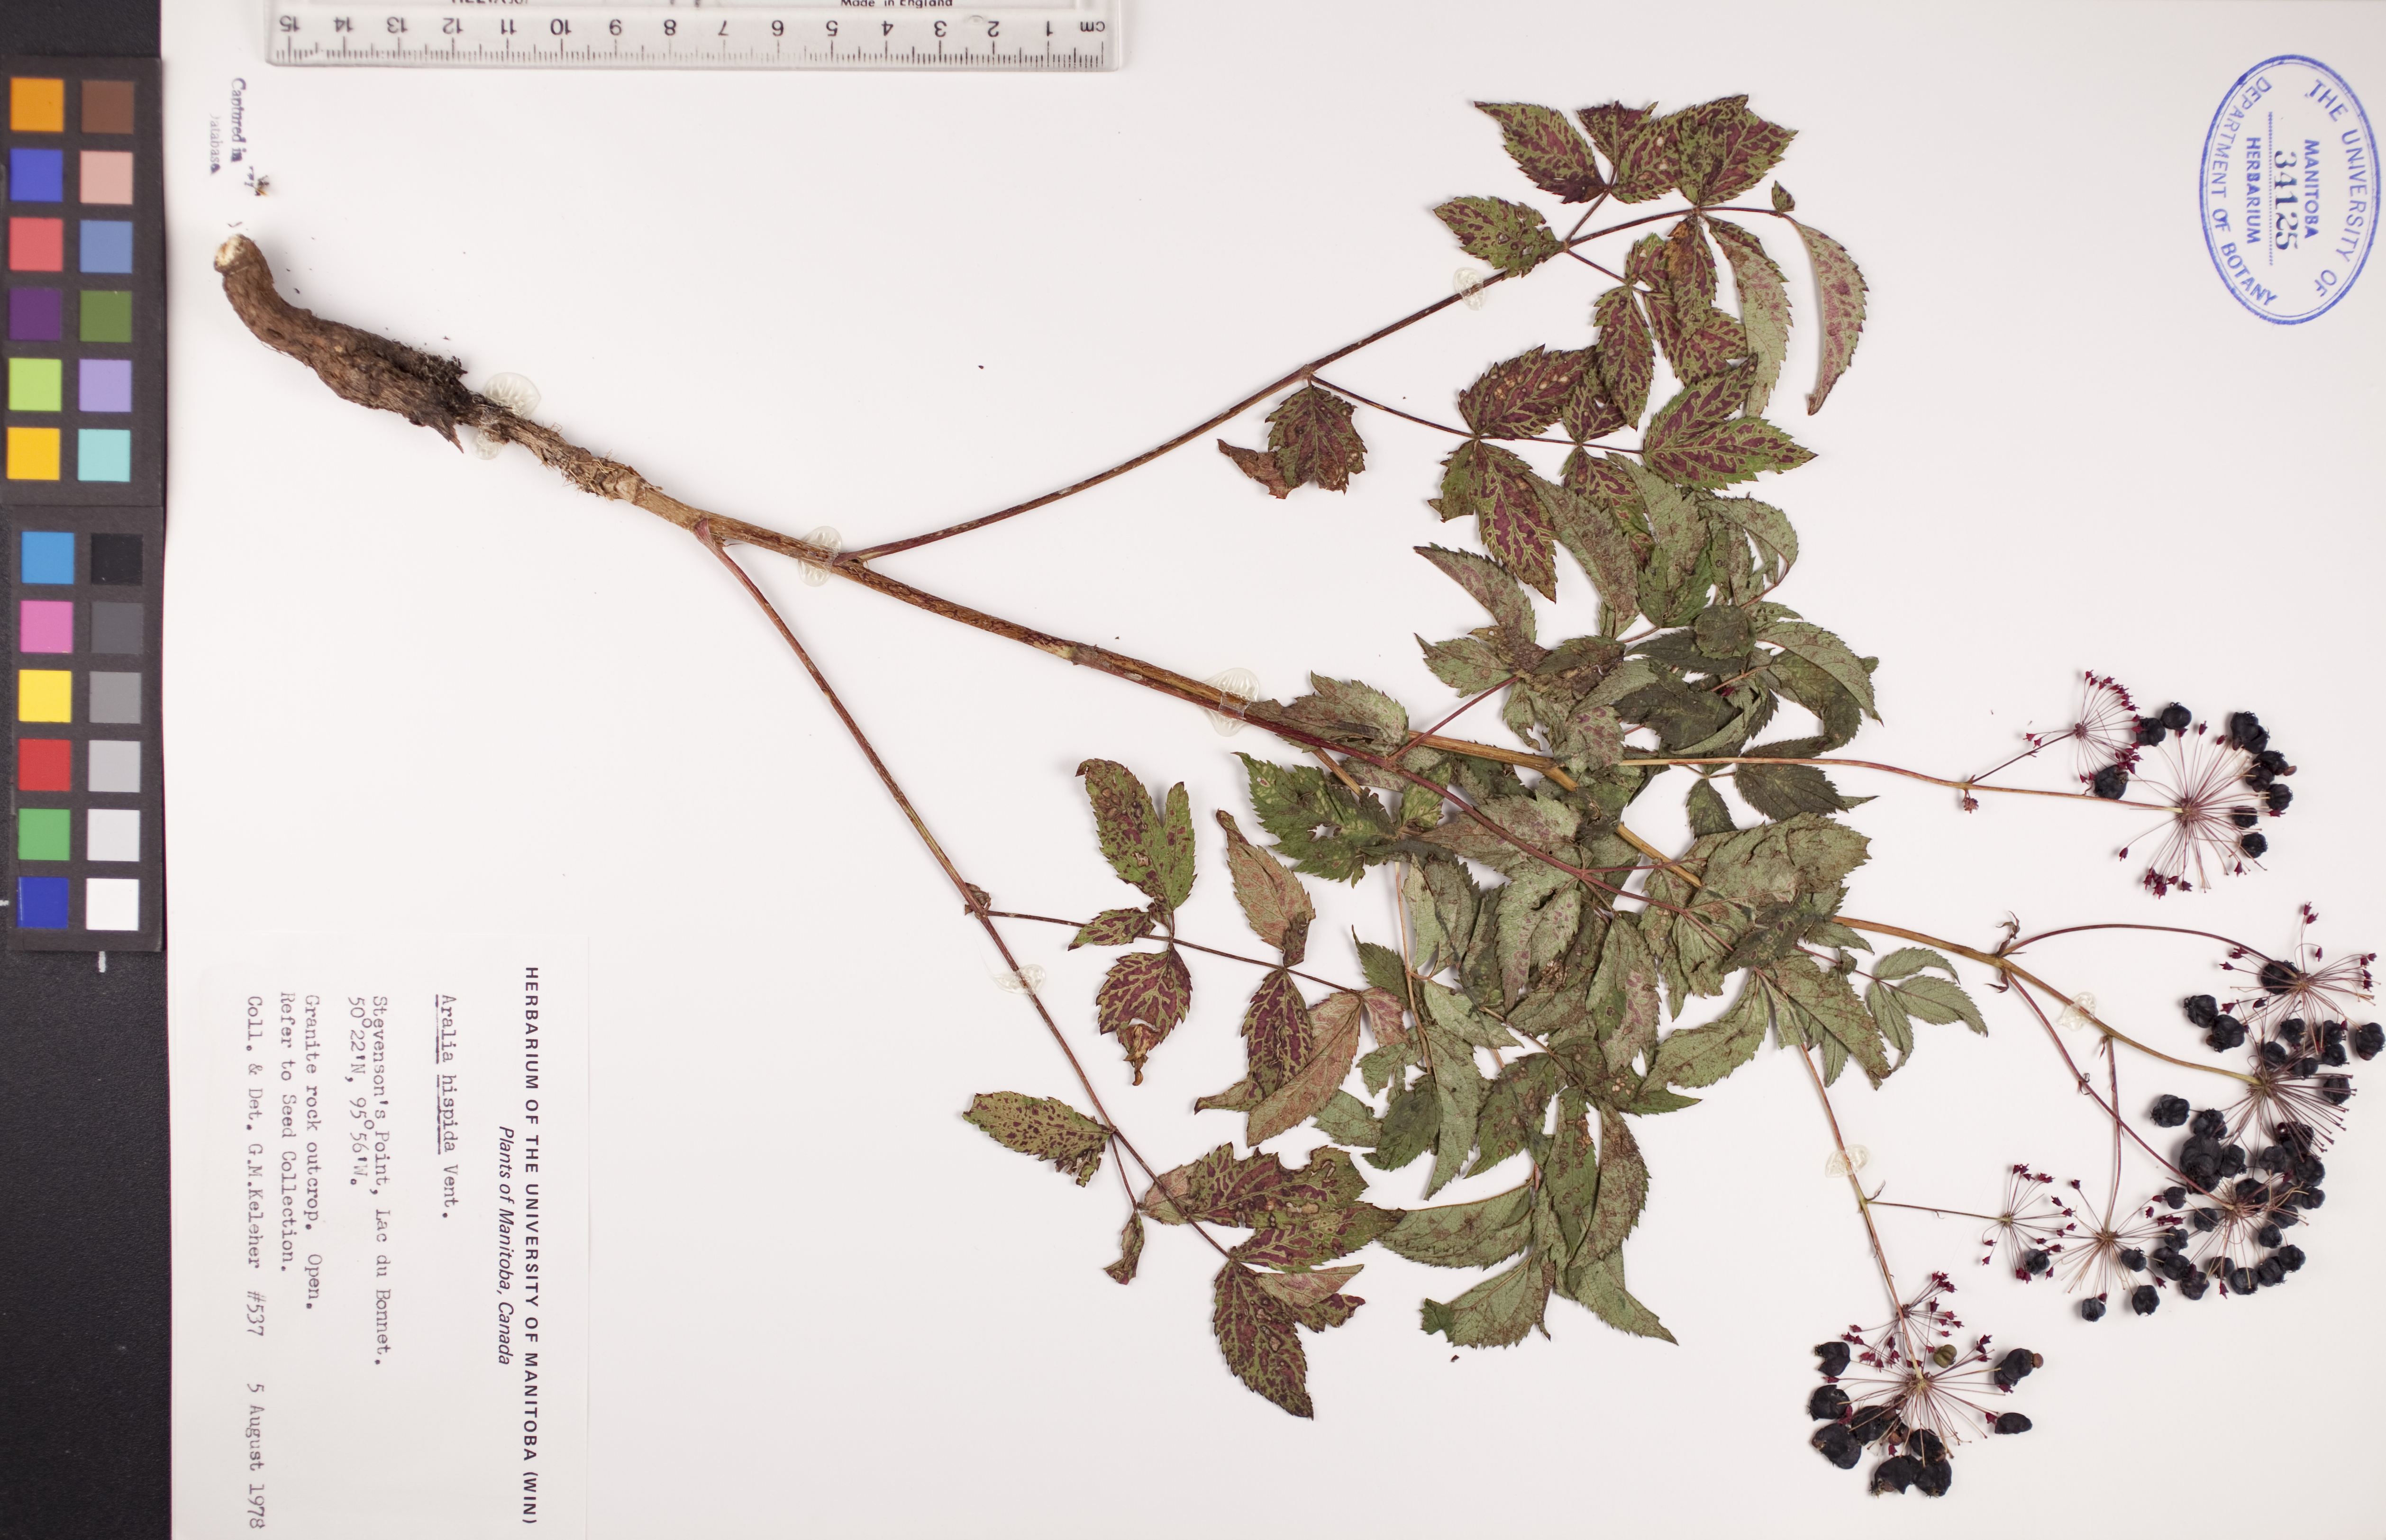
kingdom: Plantae
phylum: Tracheophyta
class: Magnoliopsida
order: Apiales
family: Araliaceae
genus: Aralia
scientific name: Aralia hispida
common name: Bristly sarsaparilla
